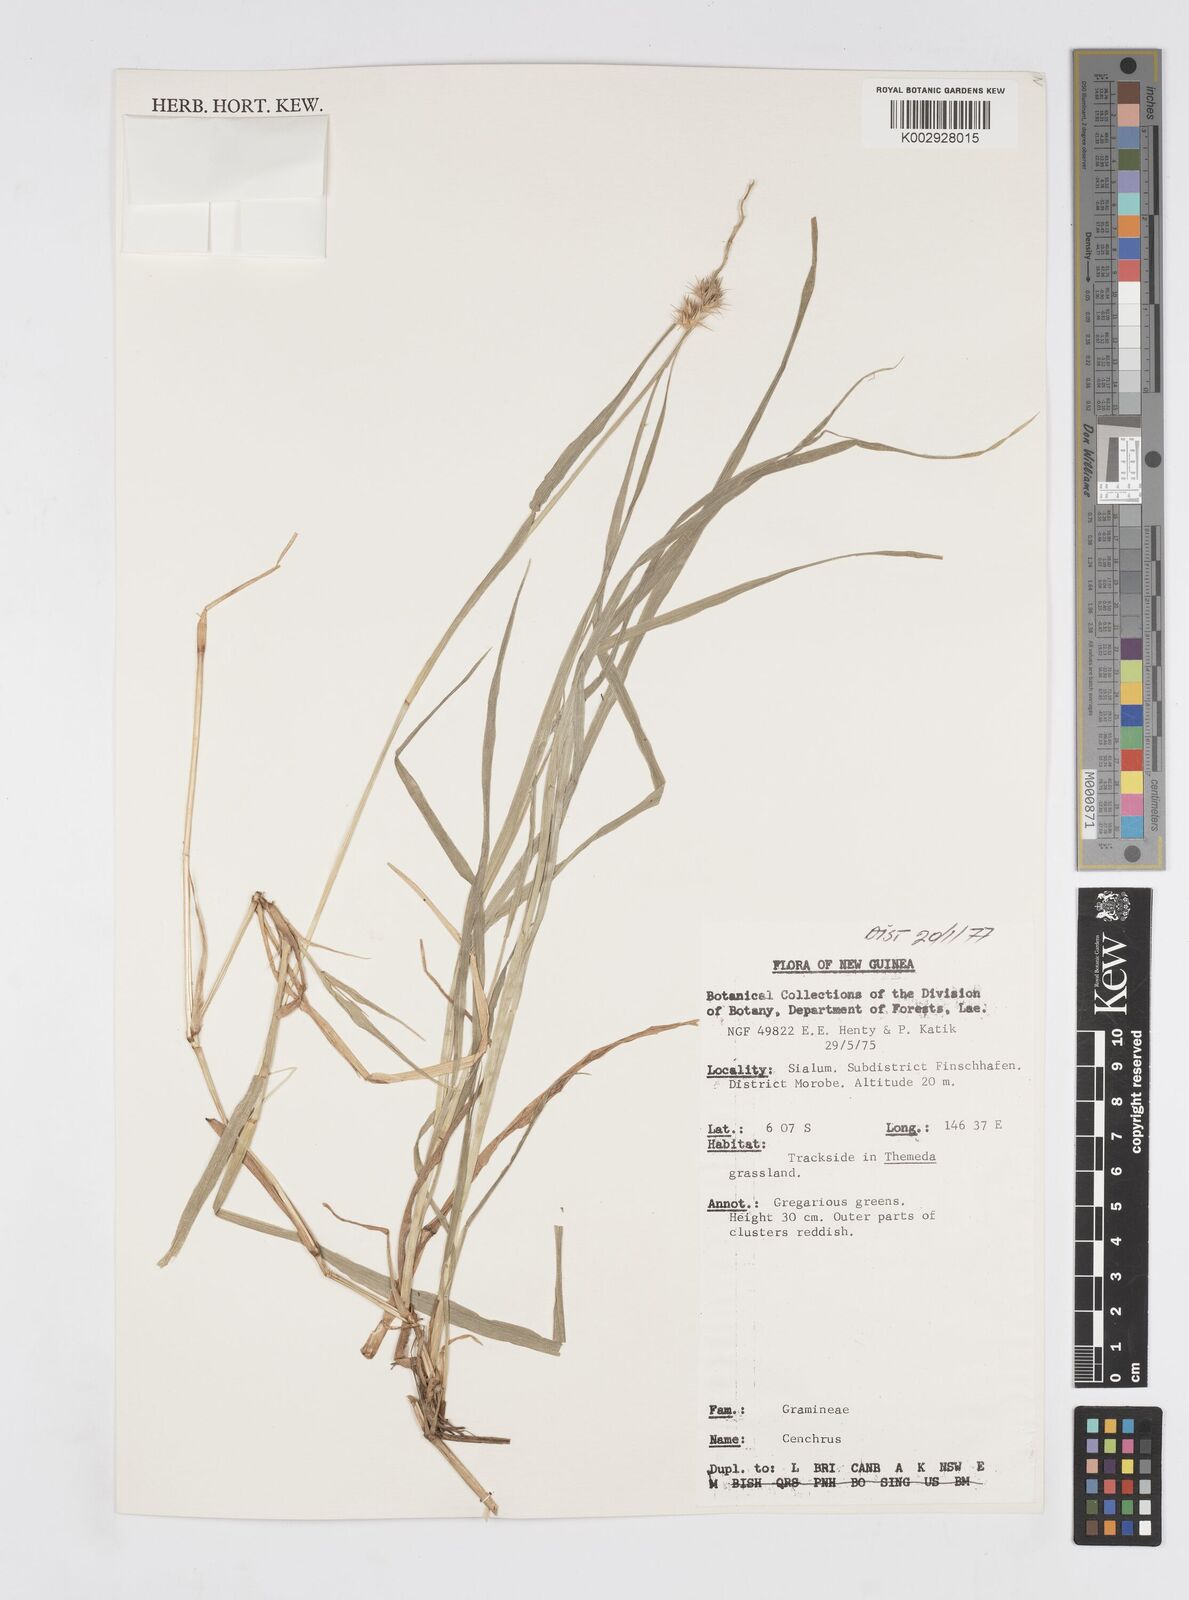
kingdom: Plantae
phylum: Tracheophyta
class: Liliopsida
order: Poales
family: Poaceae
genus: Cenchrus
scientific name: Cenchrus brownii
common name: Slim-bristle sandbur
